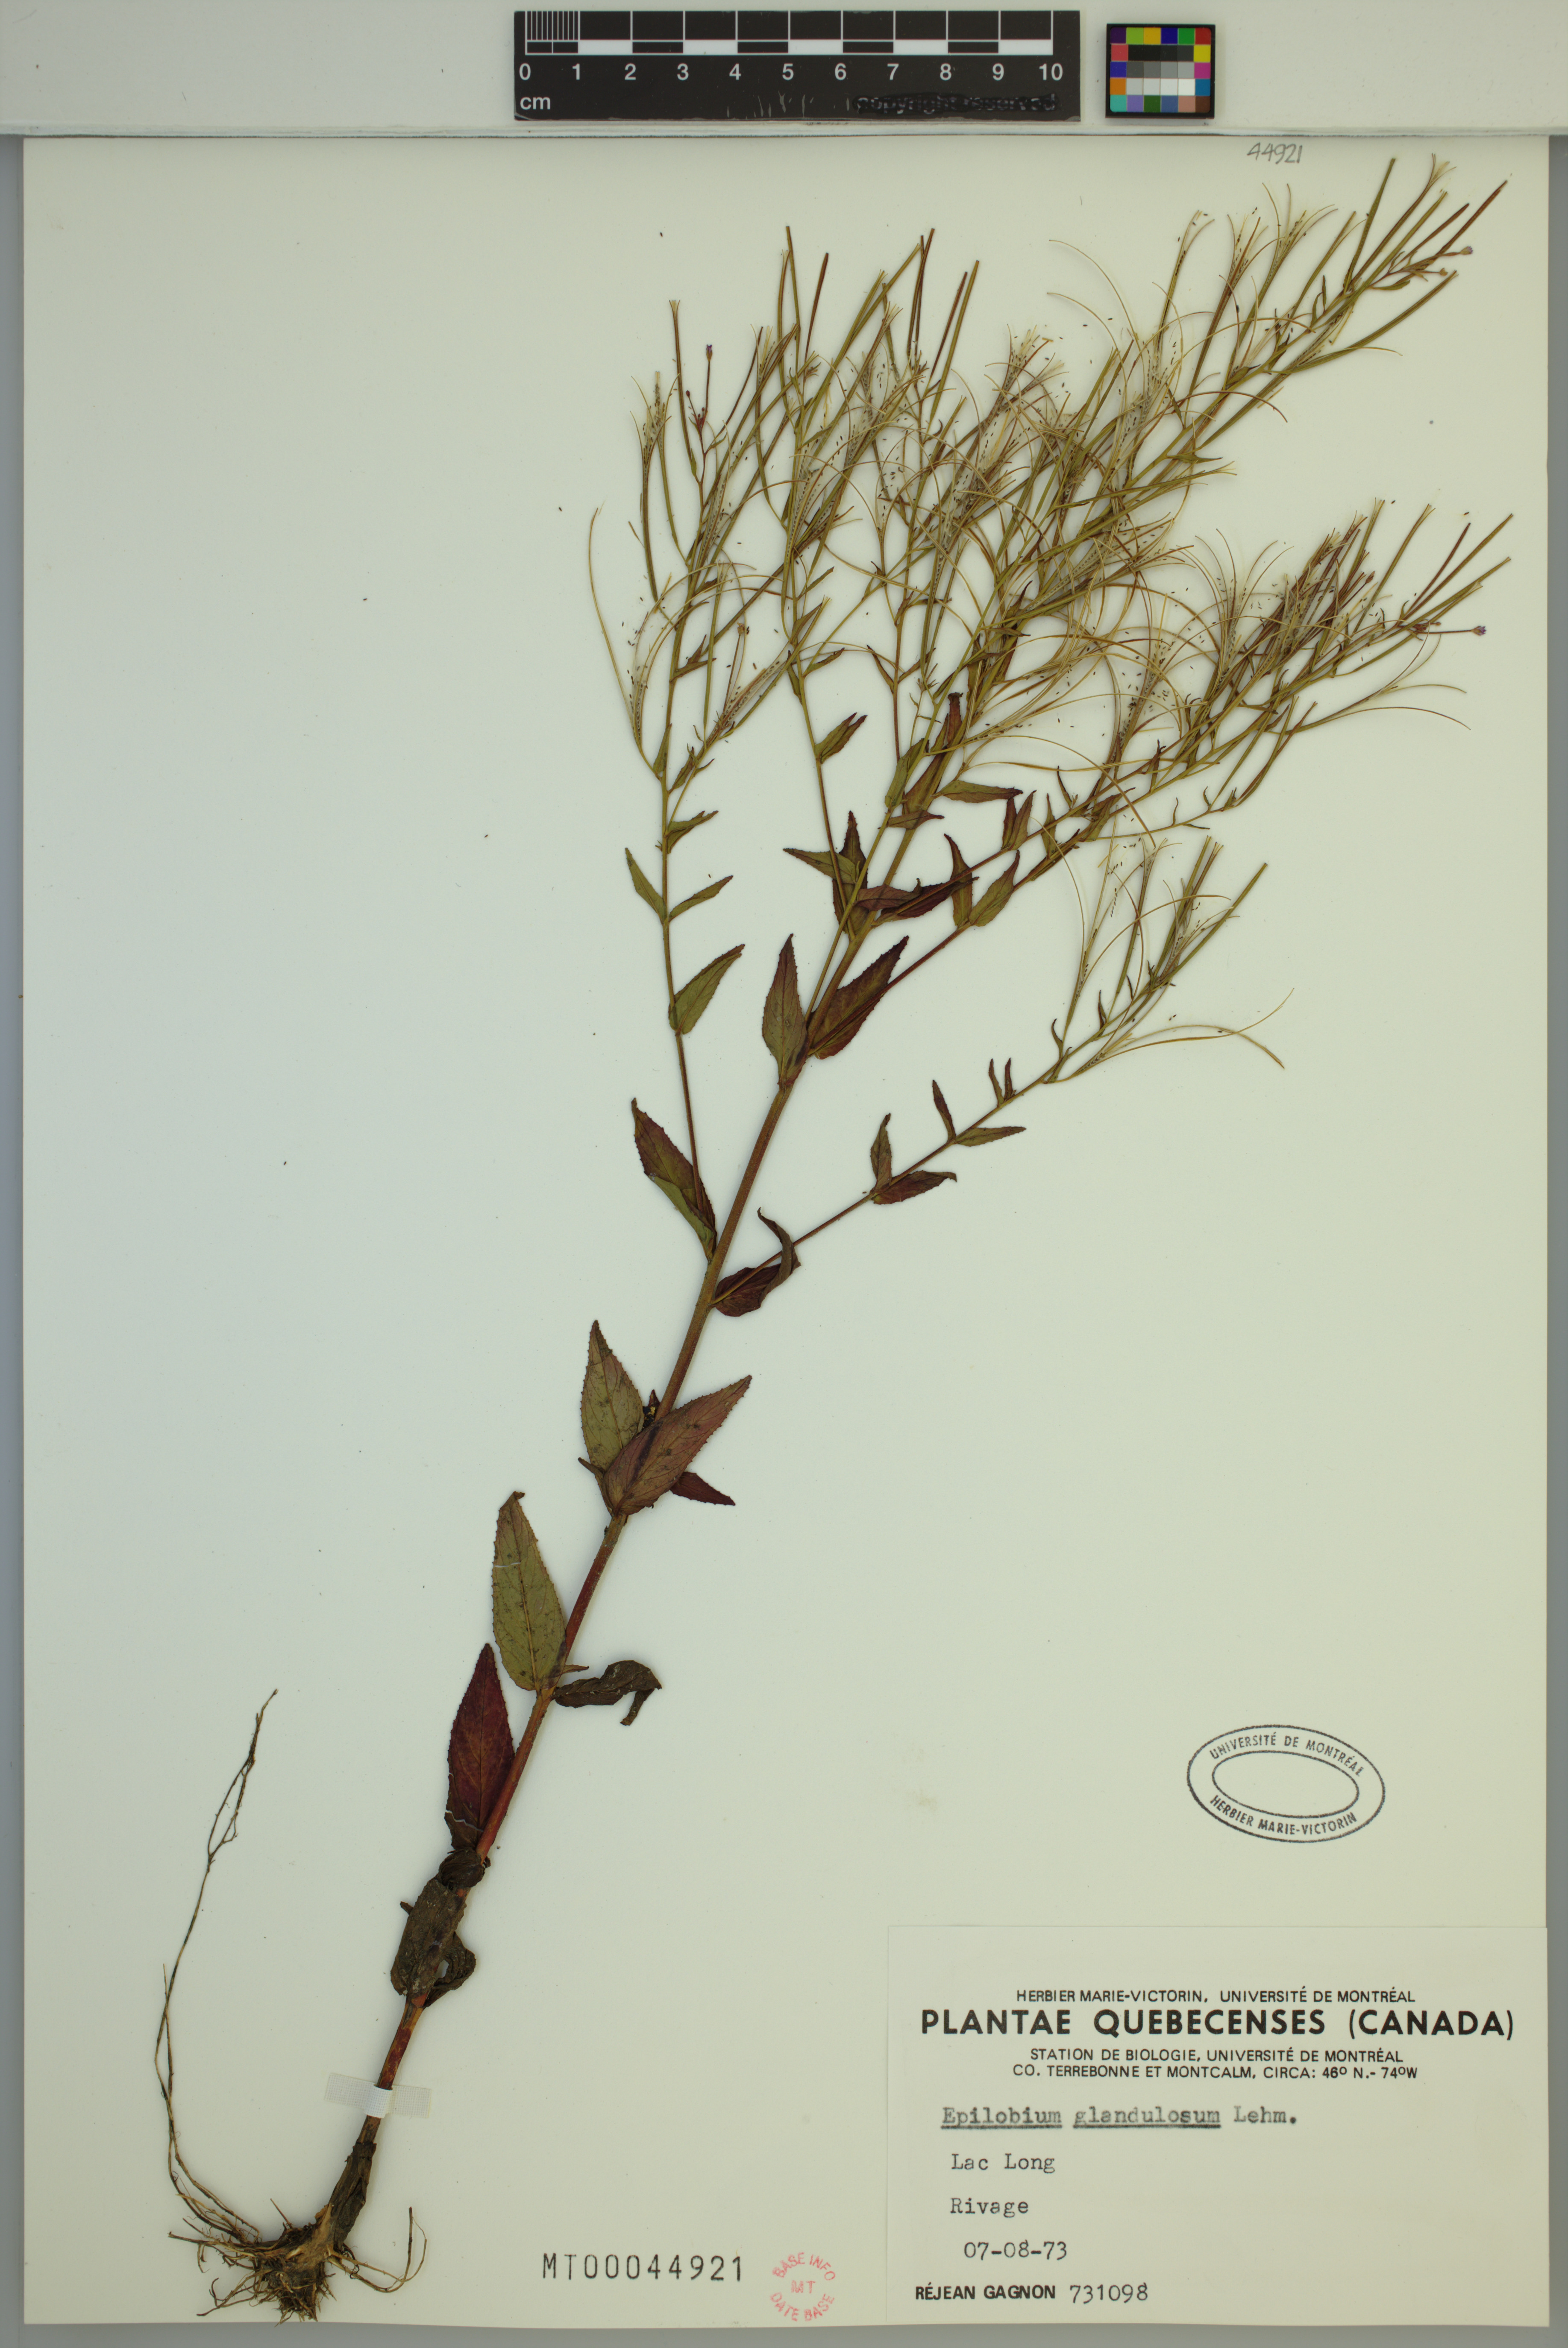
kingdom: Plantae
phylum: Tracheophyta
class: Magnoliopsida
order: Myrtales
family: Onagraceae
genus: Epilobium
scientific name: Epilobium ciliatum
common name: American willowherb
